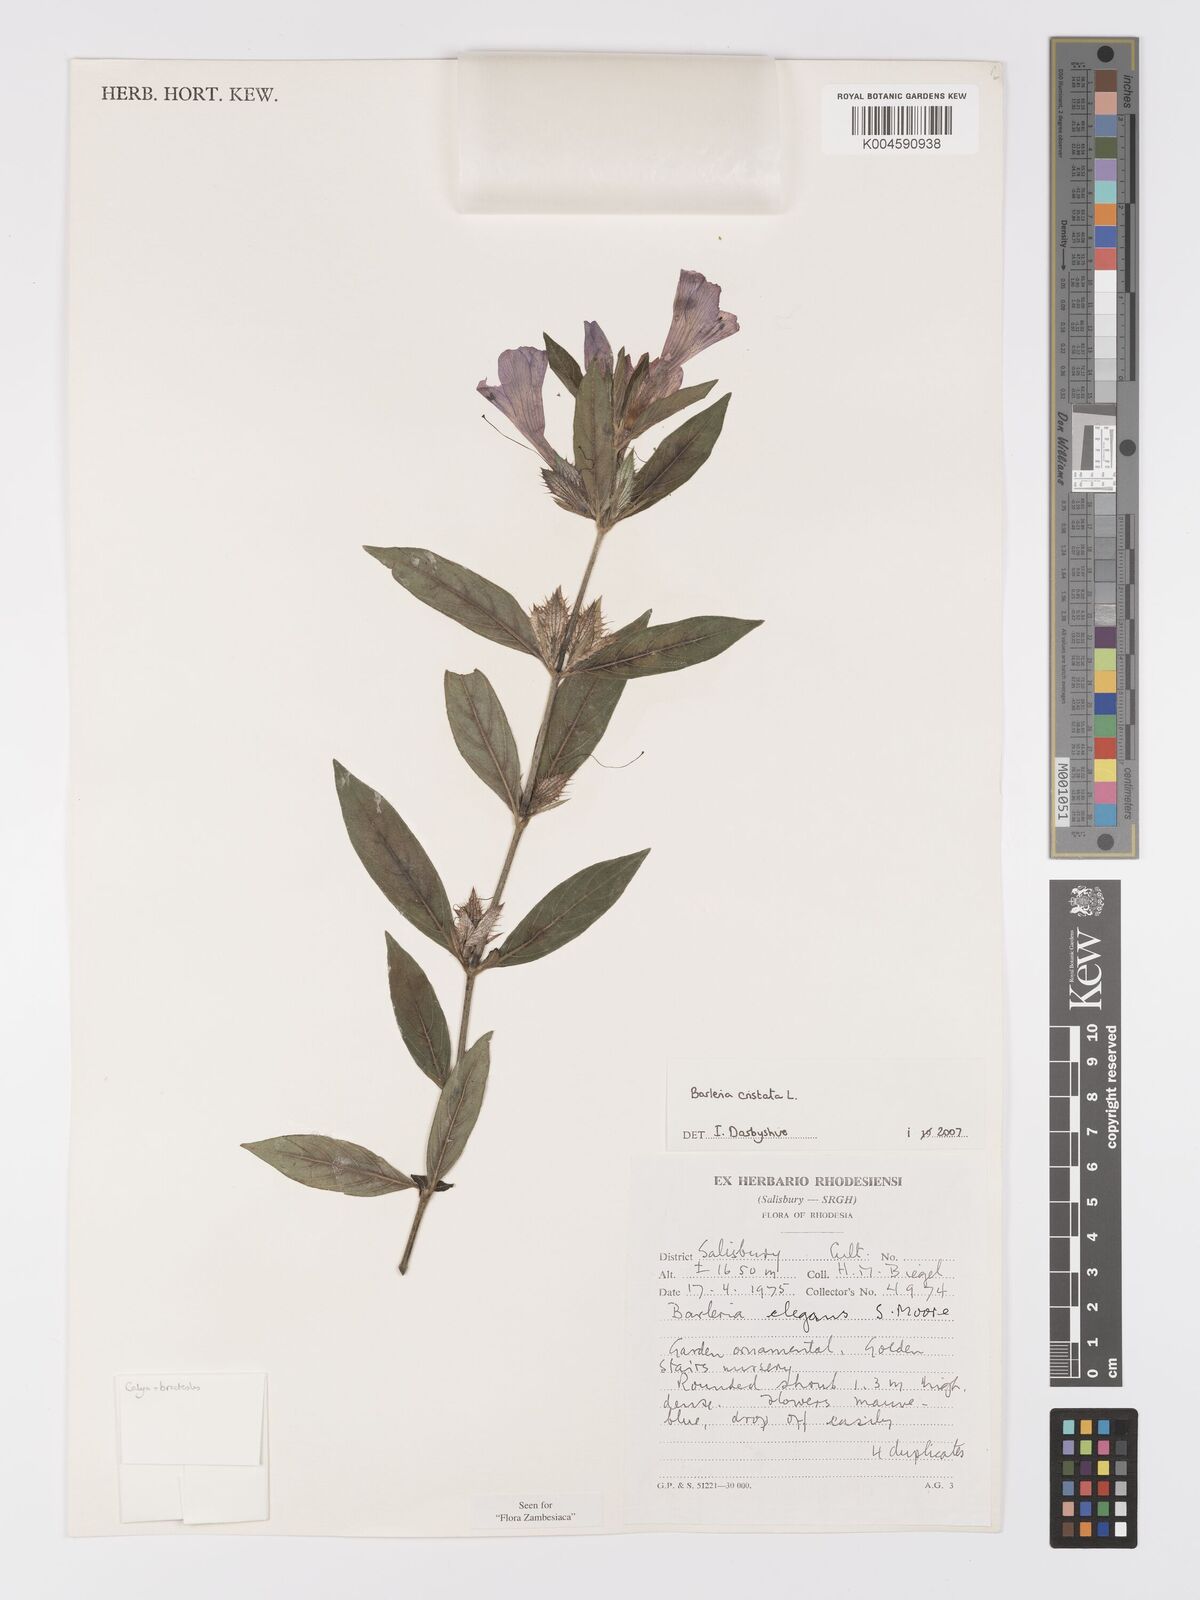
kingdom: Plantae
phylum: Tracheophyta
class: Magnoliopsida
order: Lamiales
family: Acanthaceae
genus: Barleria
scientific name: Barleria cristata
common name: Crested philippine violet
